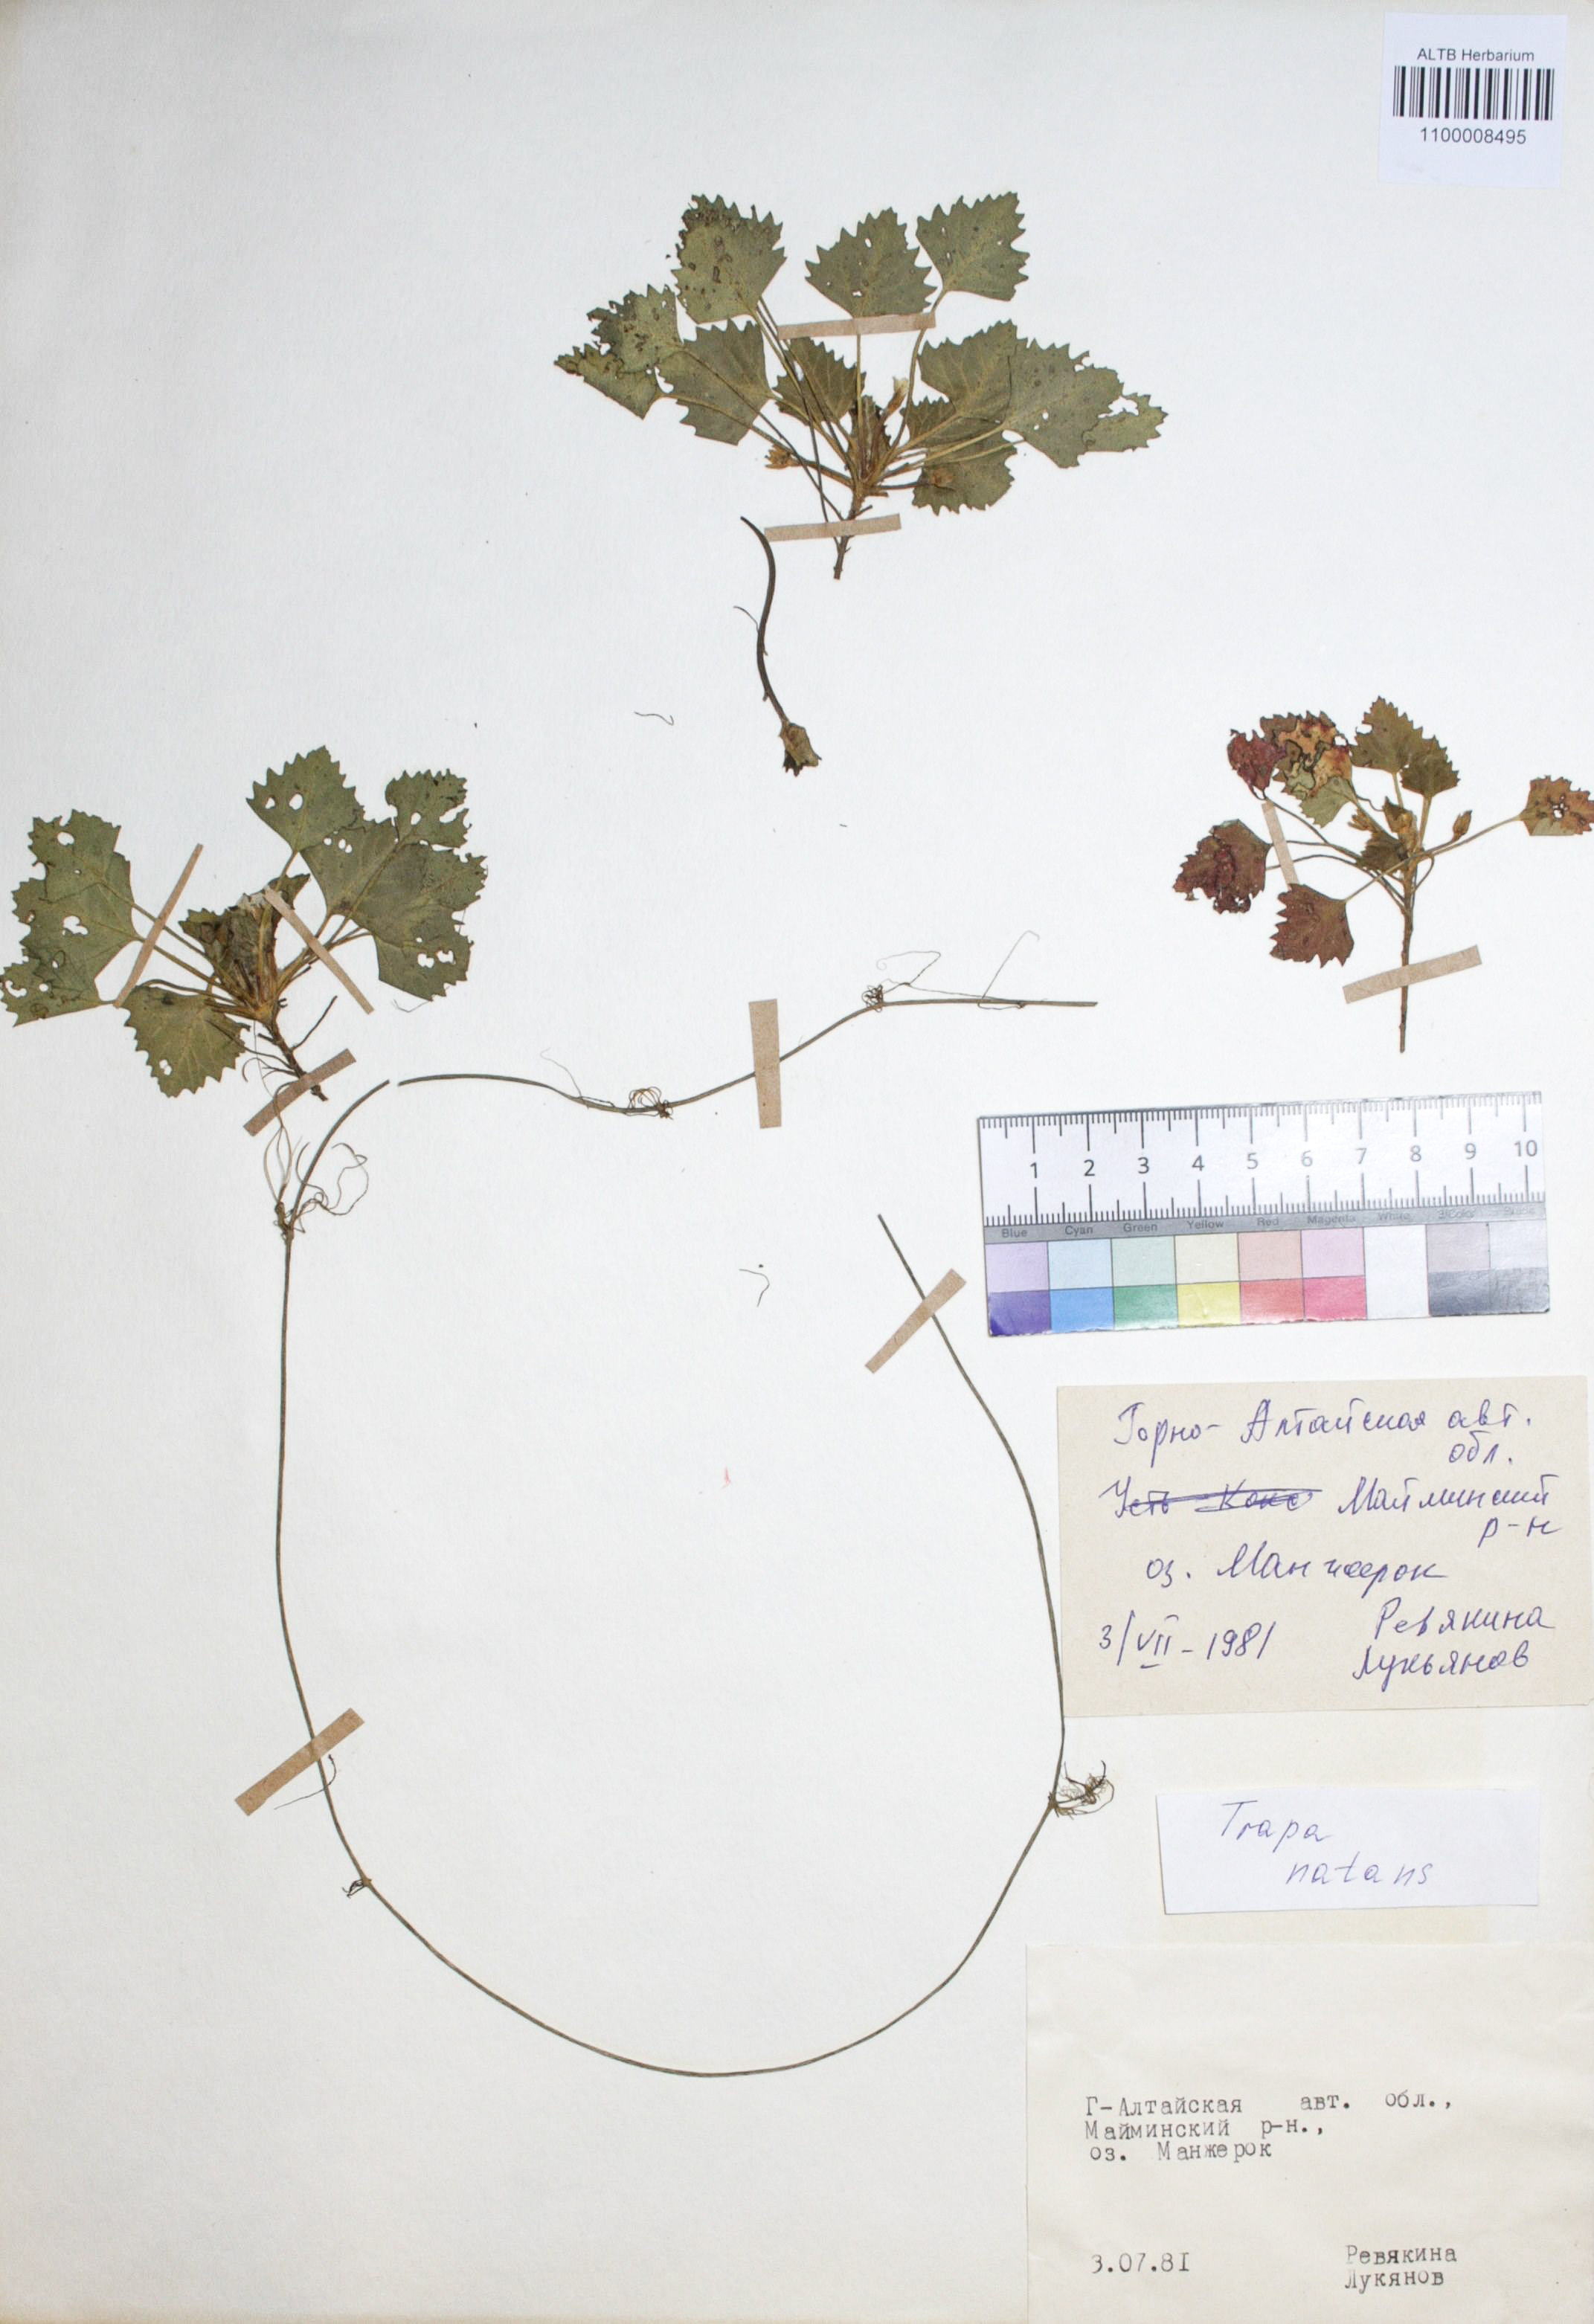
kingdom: Plantae
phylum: Tracheophyta
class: Magnoliopsida
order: Myrtales
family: Lythraceae
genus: Trapa
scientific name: Trapa natans
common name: Water chestnut
